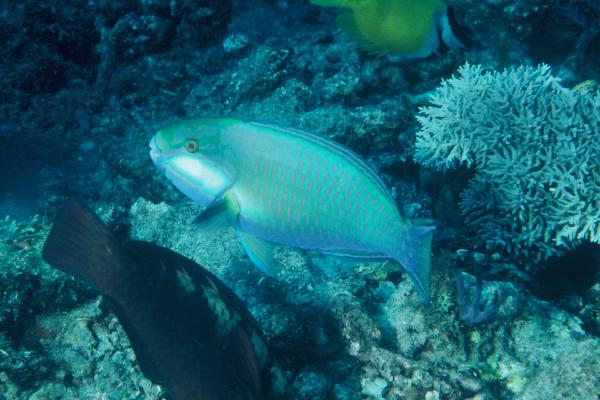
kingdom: Animalia
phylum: Chordata
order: Perciformes
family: Scaridae
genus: Chlorurus
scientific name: Chlorurus bleekeri
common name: Bleeker's parrotfish
